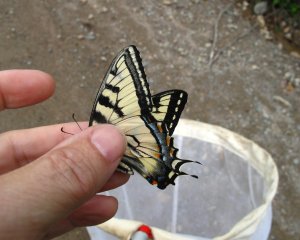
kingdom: Animalia
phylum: Arthropoda
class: Insecta
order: Lepidoptera
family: Papilionidae
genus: Pterourus
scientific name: Pterourus canadensis
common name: Canadian Tiger Swallowtail
